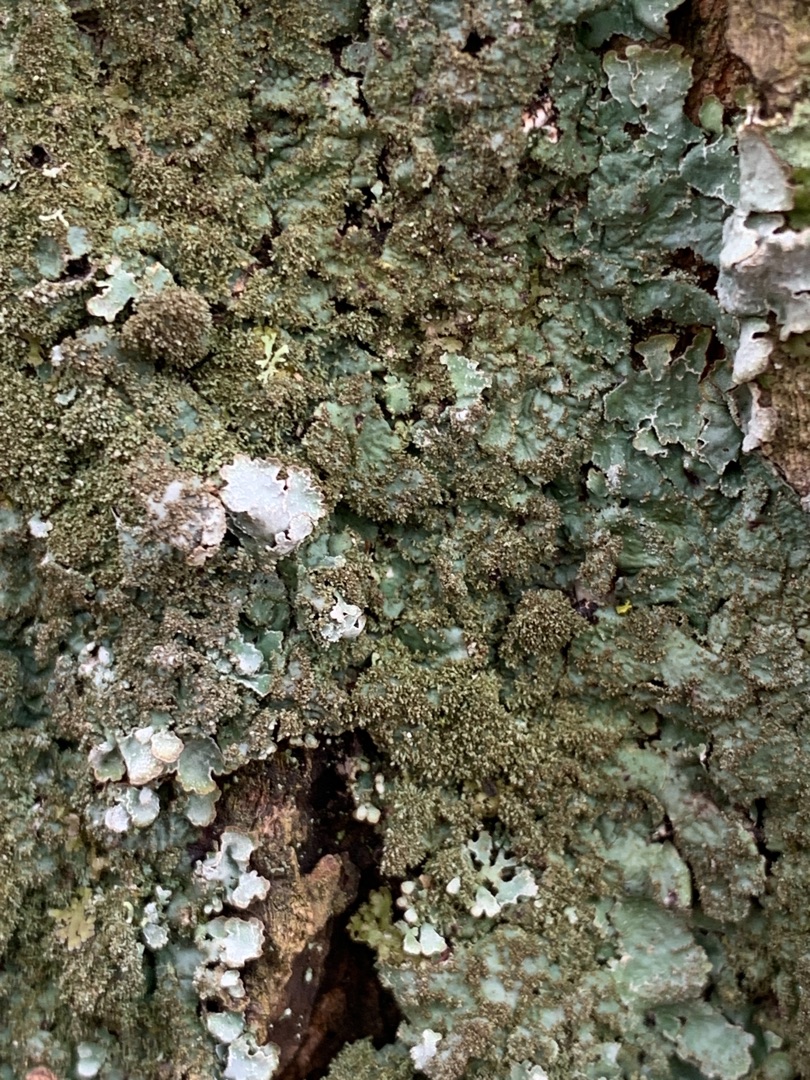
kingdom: Fungi
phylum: Ascomycota
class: Lecanoromycetes
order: Lecanorales
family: Parmeliaceae
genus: Parmelia
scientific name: Parmelia saxatilis
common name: Farve-skållav
